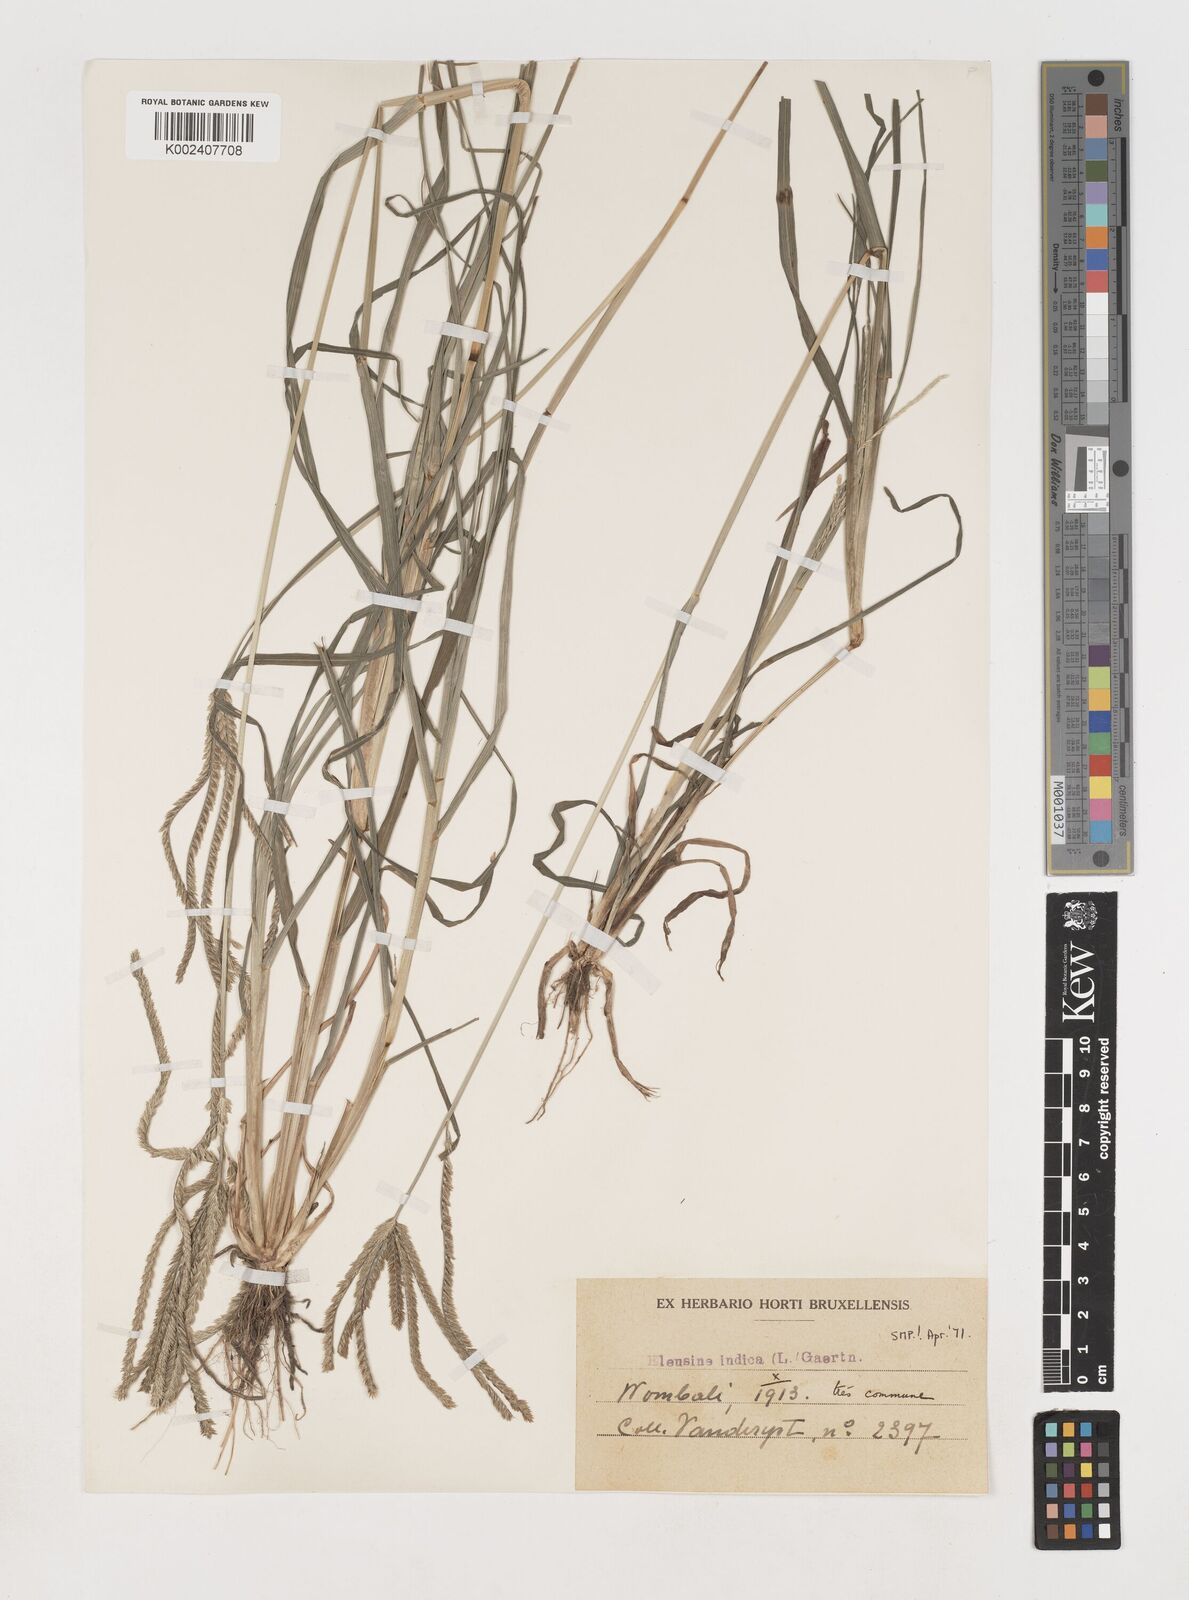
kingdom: Plantae
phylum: Tracheophyta
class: Liliopsida
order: Poales
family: Poaceae
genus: Eleusine
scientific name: Eleusine indica
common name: Yard-grass
